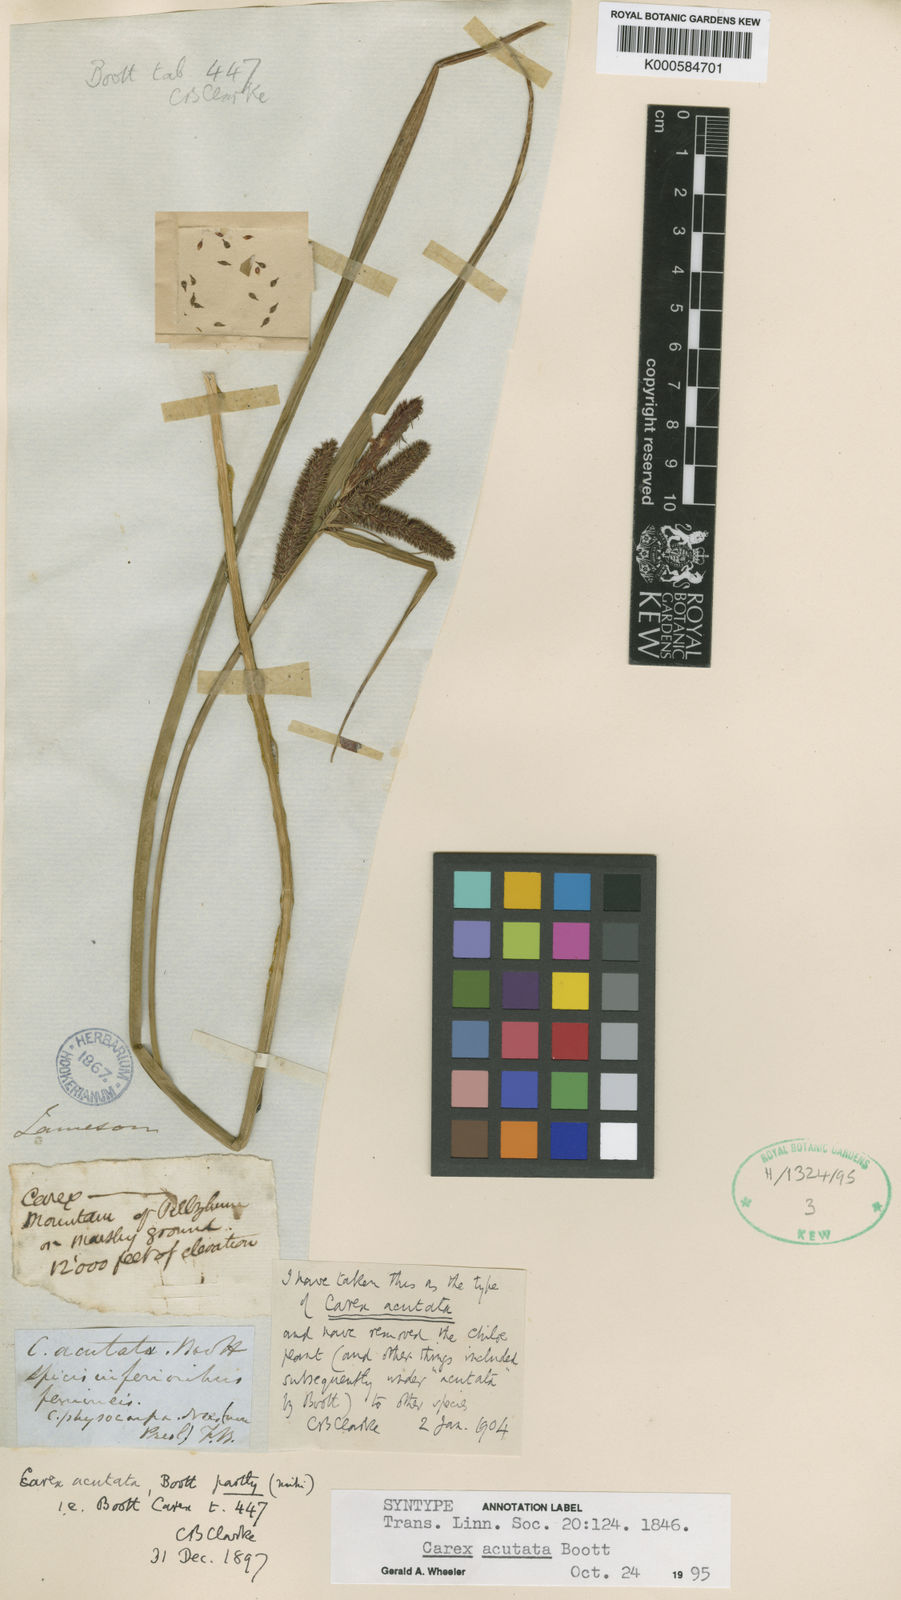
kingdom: Plantae
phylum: Tracheophyta
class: Liliopsida
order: Poales
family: Cyperaceae
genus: Carex
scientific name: Carex acutata
